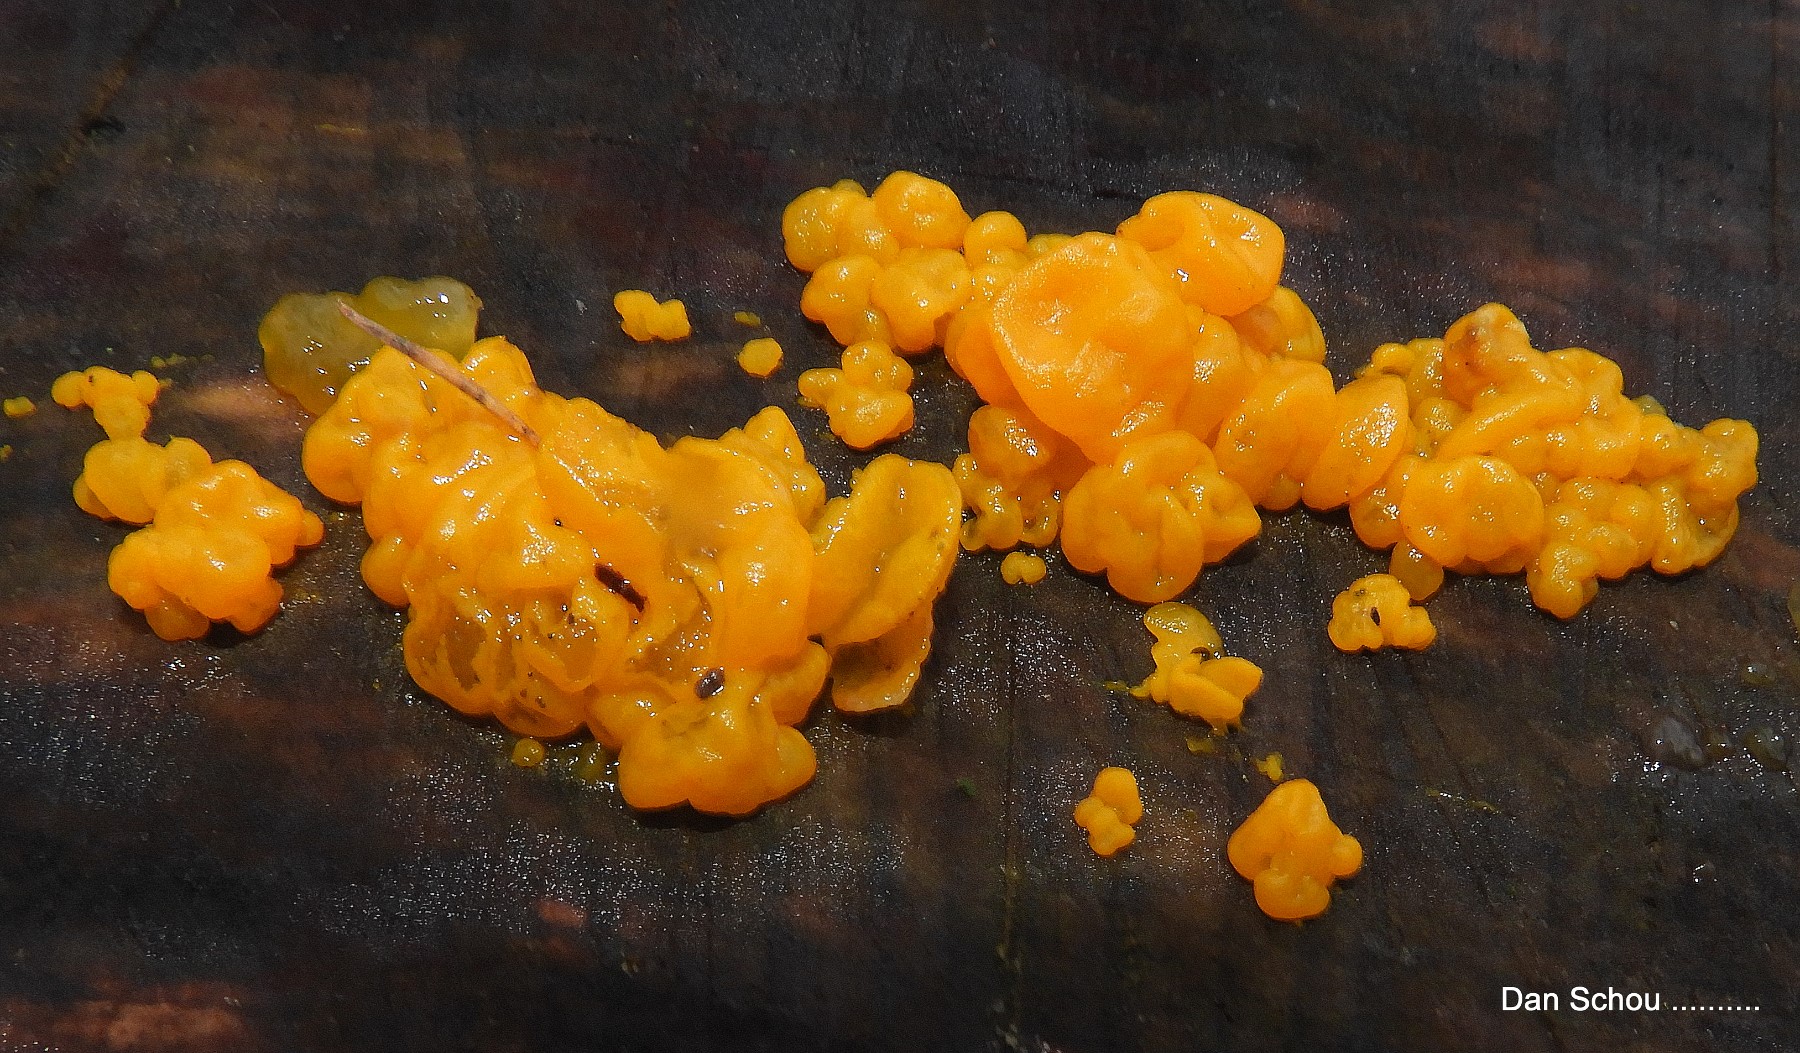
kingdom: Fungi
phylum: Basidiomycota
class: Tremellomycetes
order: Tremellales
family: Tremellaceae
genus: Tremella
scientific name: Tremella mesenterica
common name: gul bævresvamp
